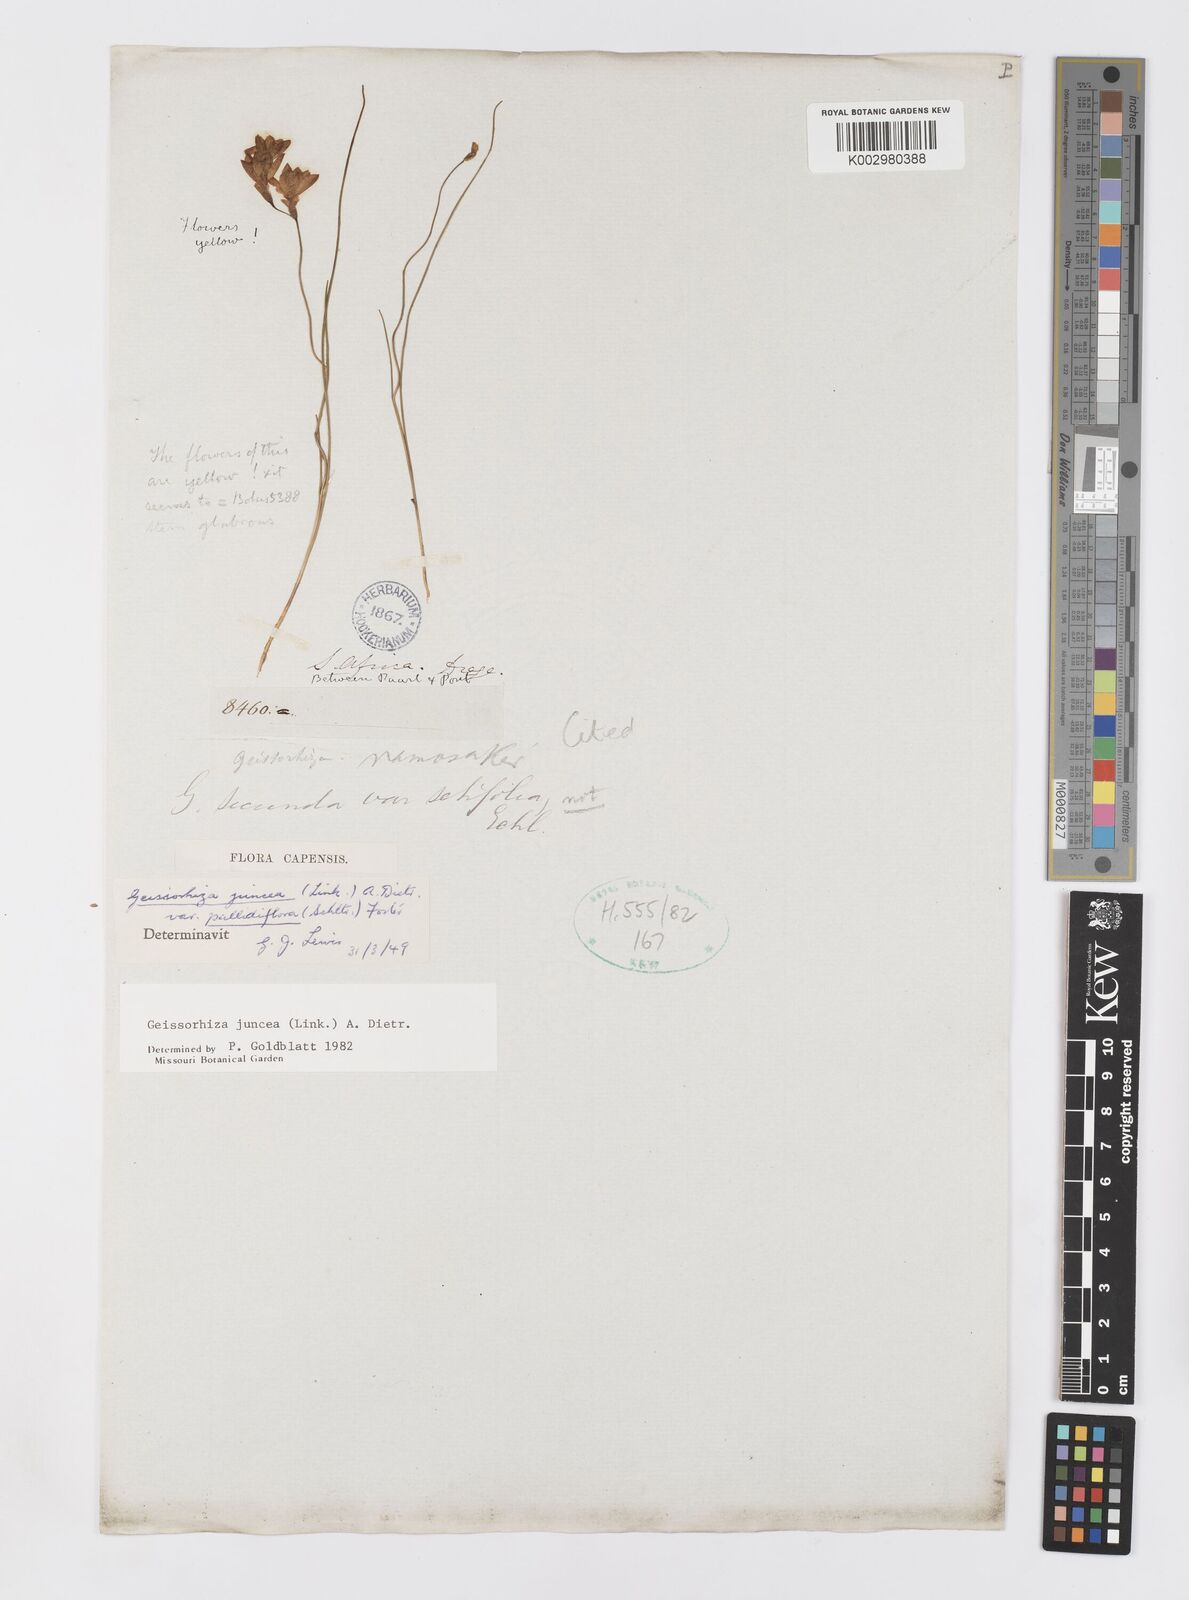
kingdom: Plantae
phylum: Tracheophyta
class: Liliopsida
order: Asparagales
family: Iridaceae
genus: Geissorhiza
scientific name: Geissorhiza juncea
